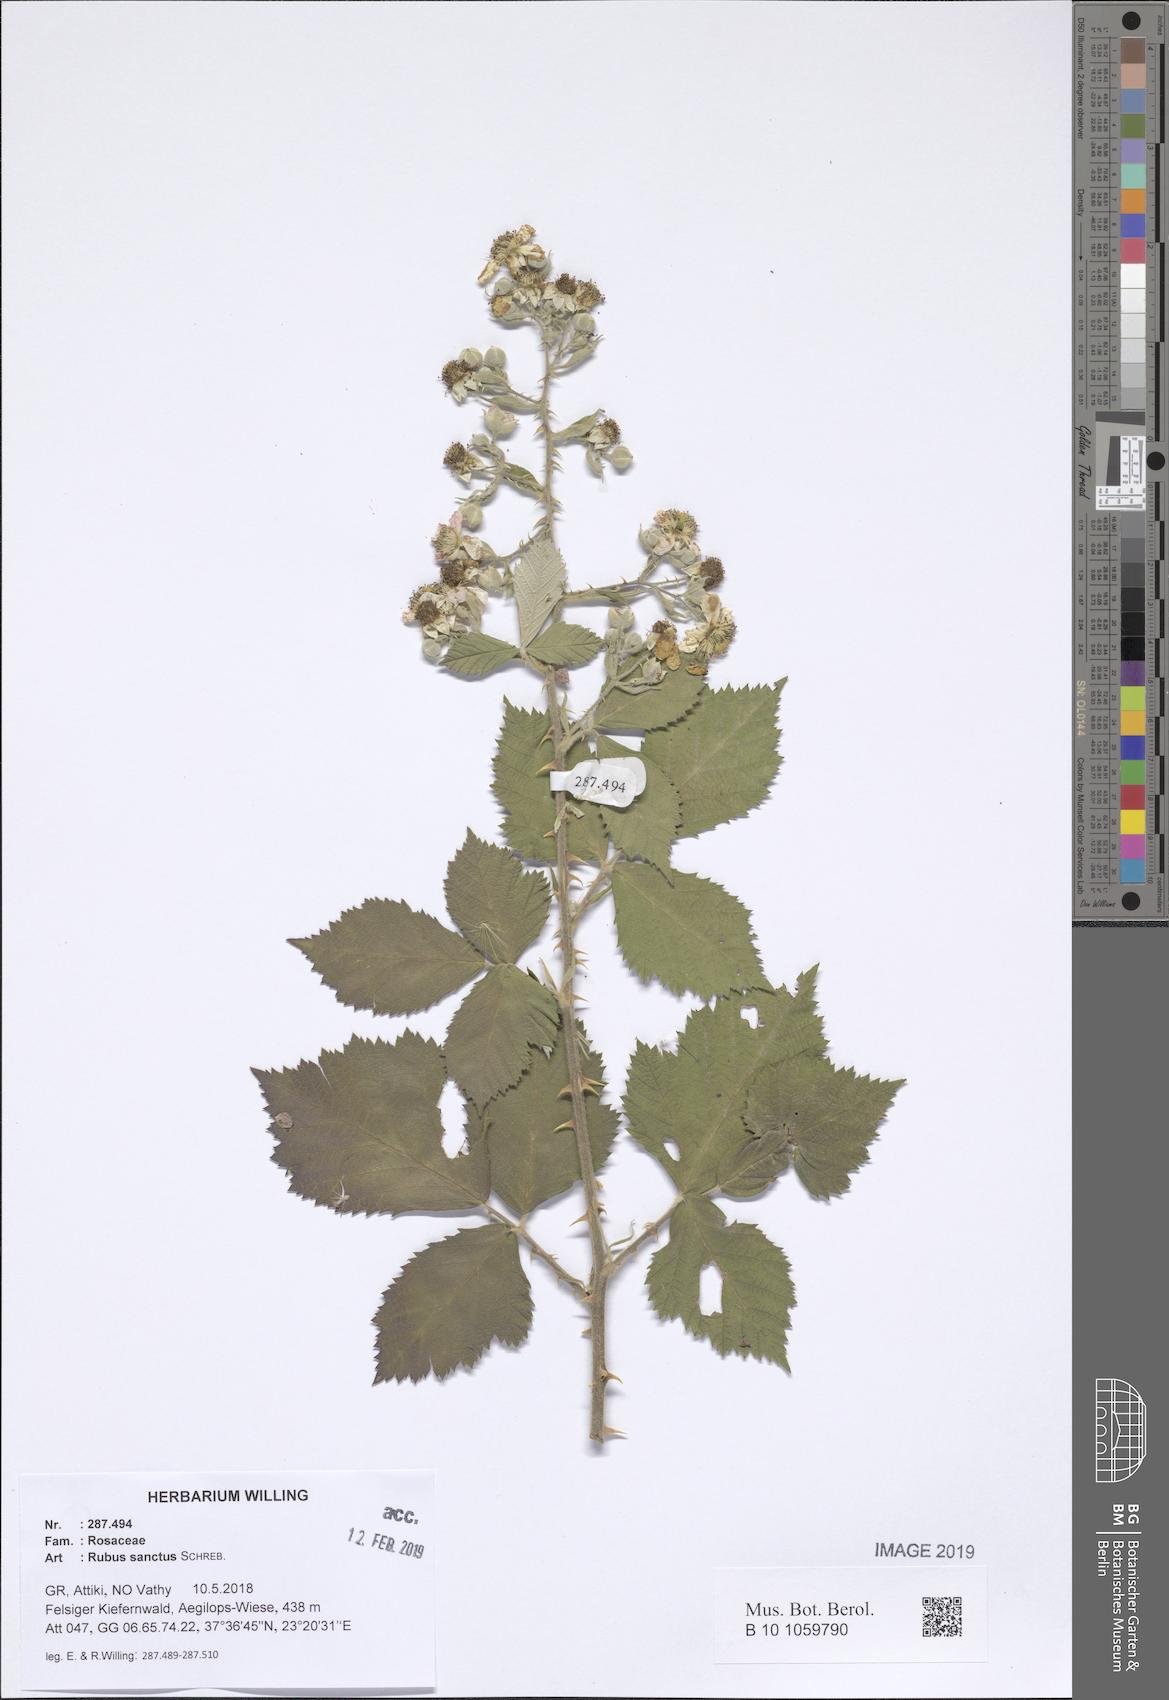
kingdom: Plantae
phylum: Tracheophyta
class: Magnoliopsida
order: Rosales
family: Rosaceae
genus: Rubus
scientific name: Rubus sanctus
